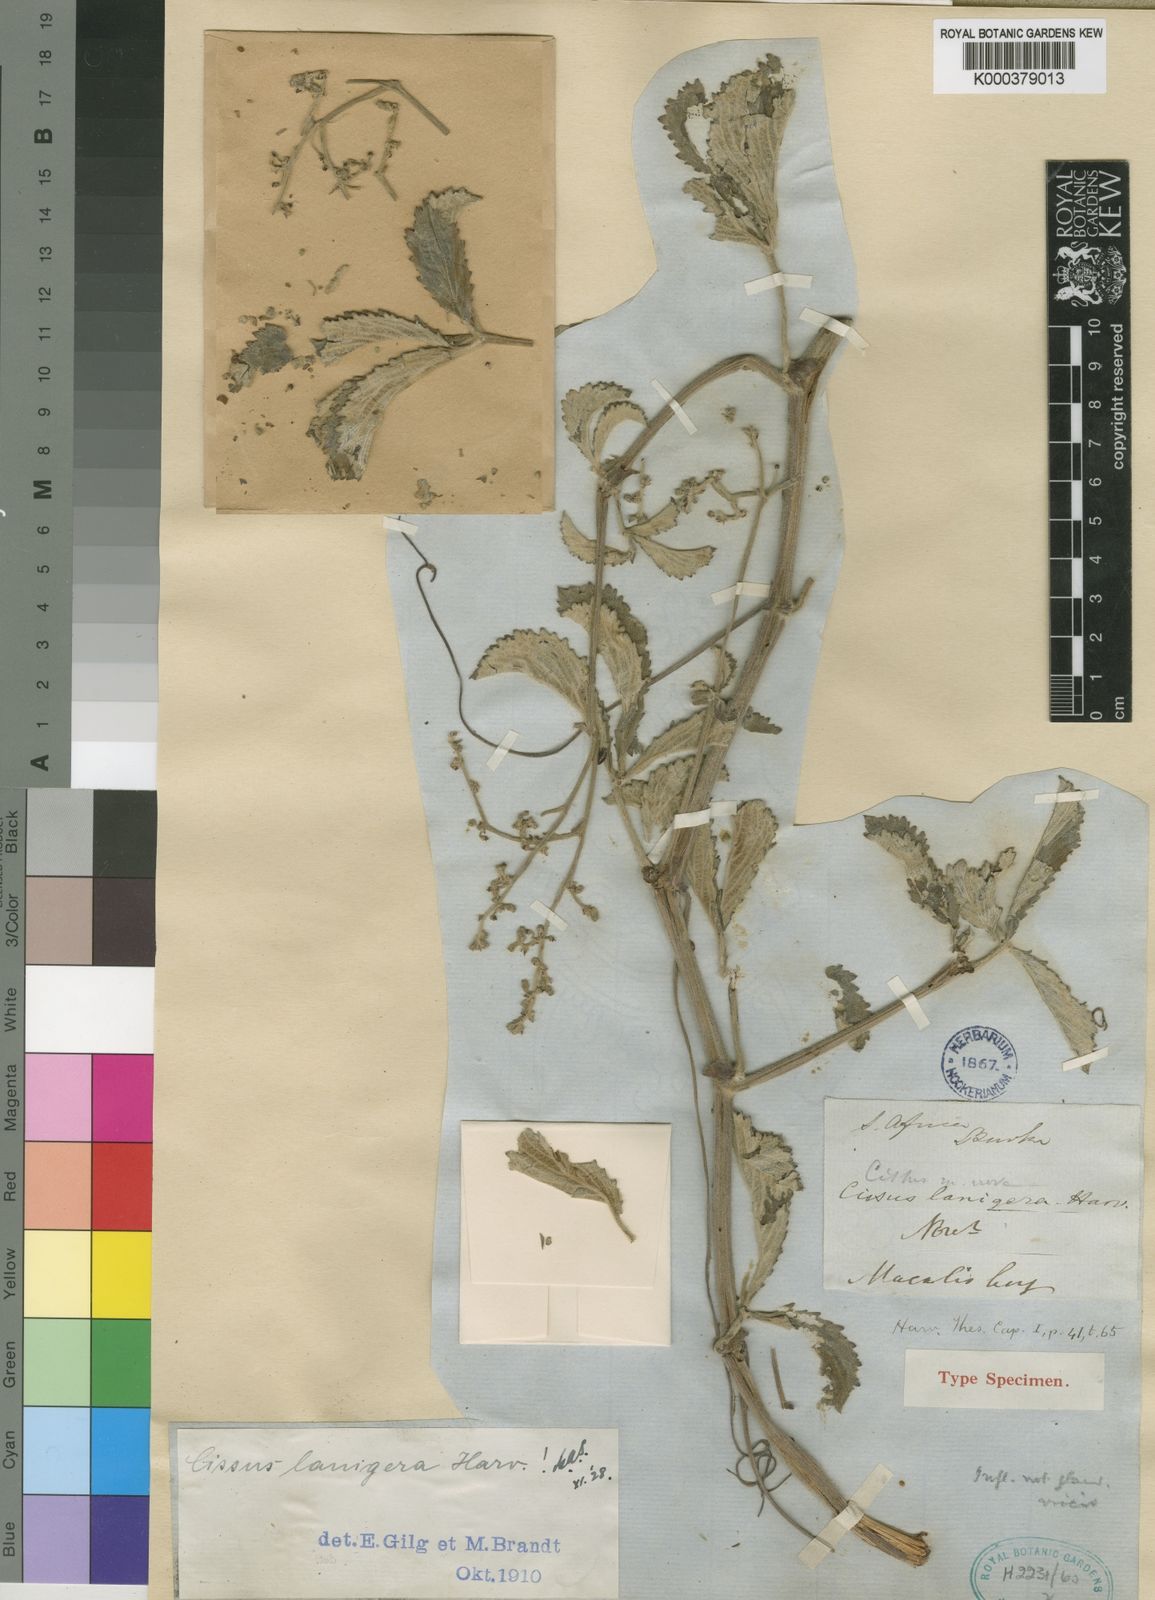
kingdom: Plantae
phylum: Tracheophyta
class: Magnoliopsida
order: Vitales
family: Vitaceae
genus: Cyphostemma
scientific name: Cyphostemma lanigerum
